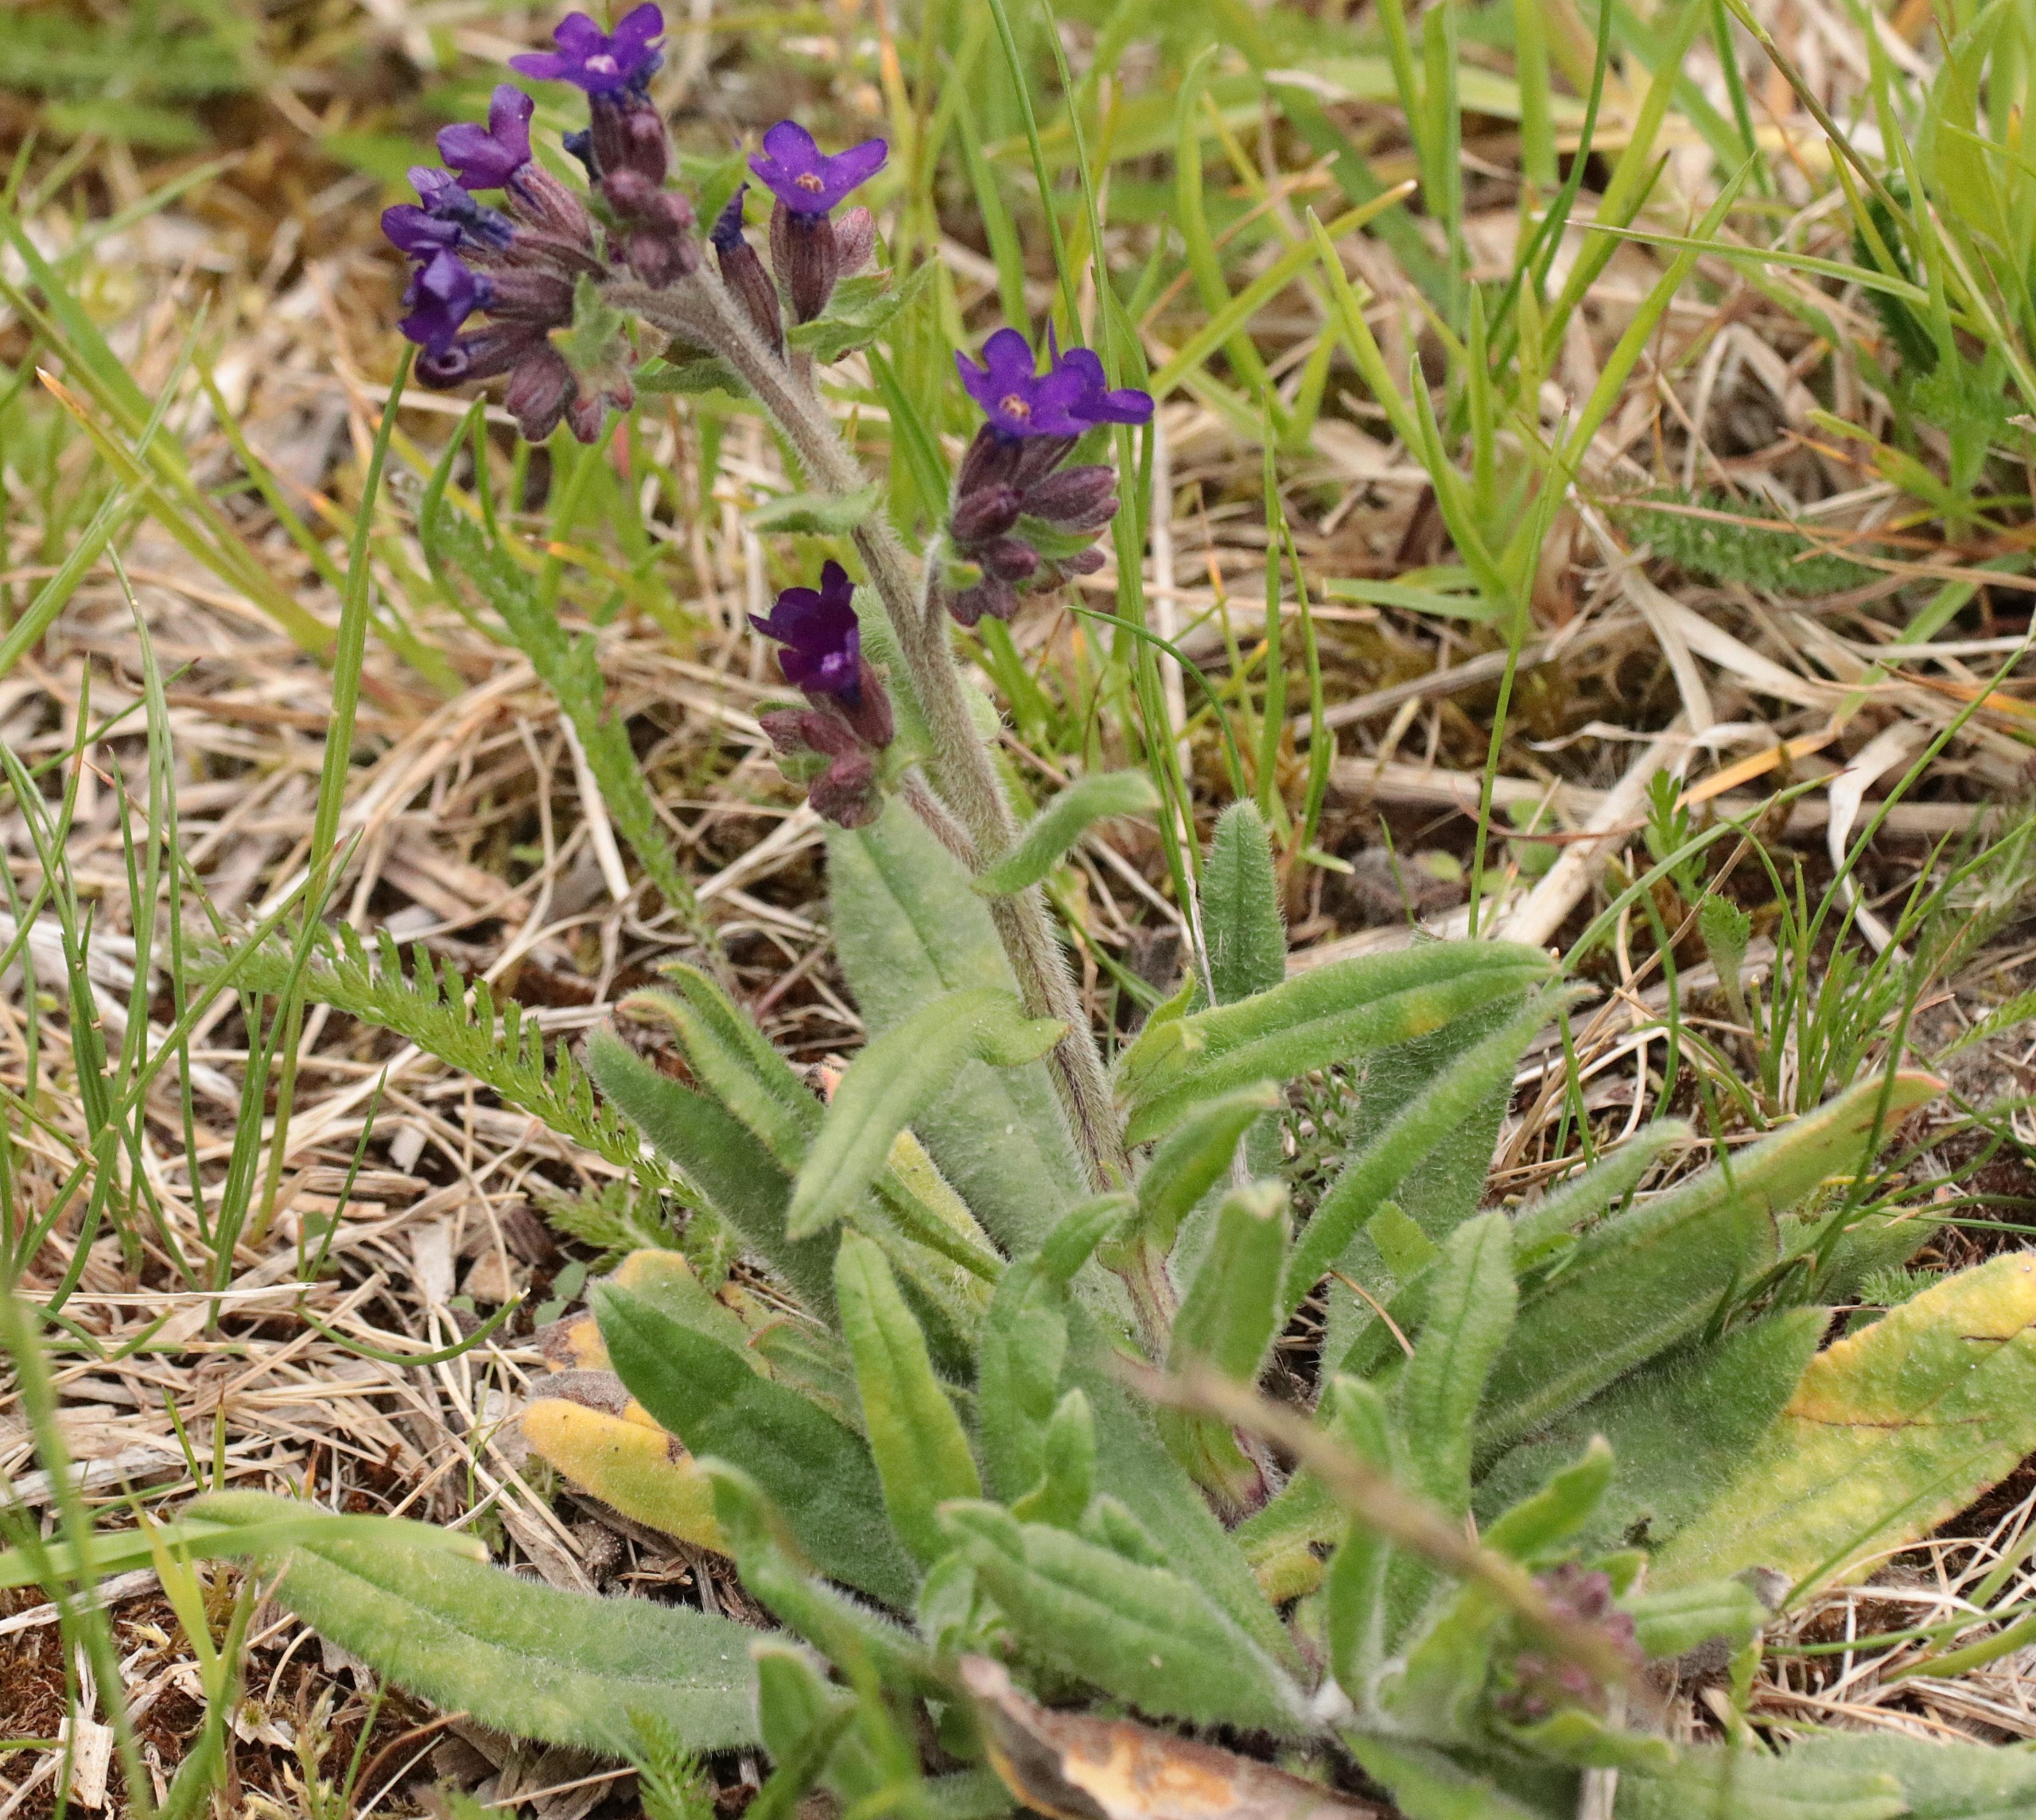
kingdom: Plantae
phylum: Tracheophyta
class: Magnoliopsida
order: Boraginales
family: Boraginaceae
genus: Anchusa
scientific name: Anchusa officinalis
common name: Læge-oksetunge
